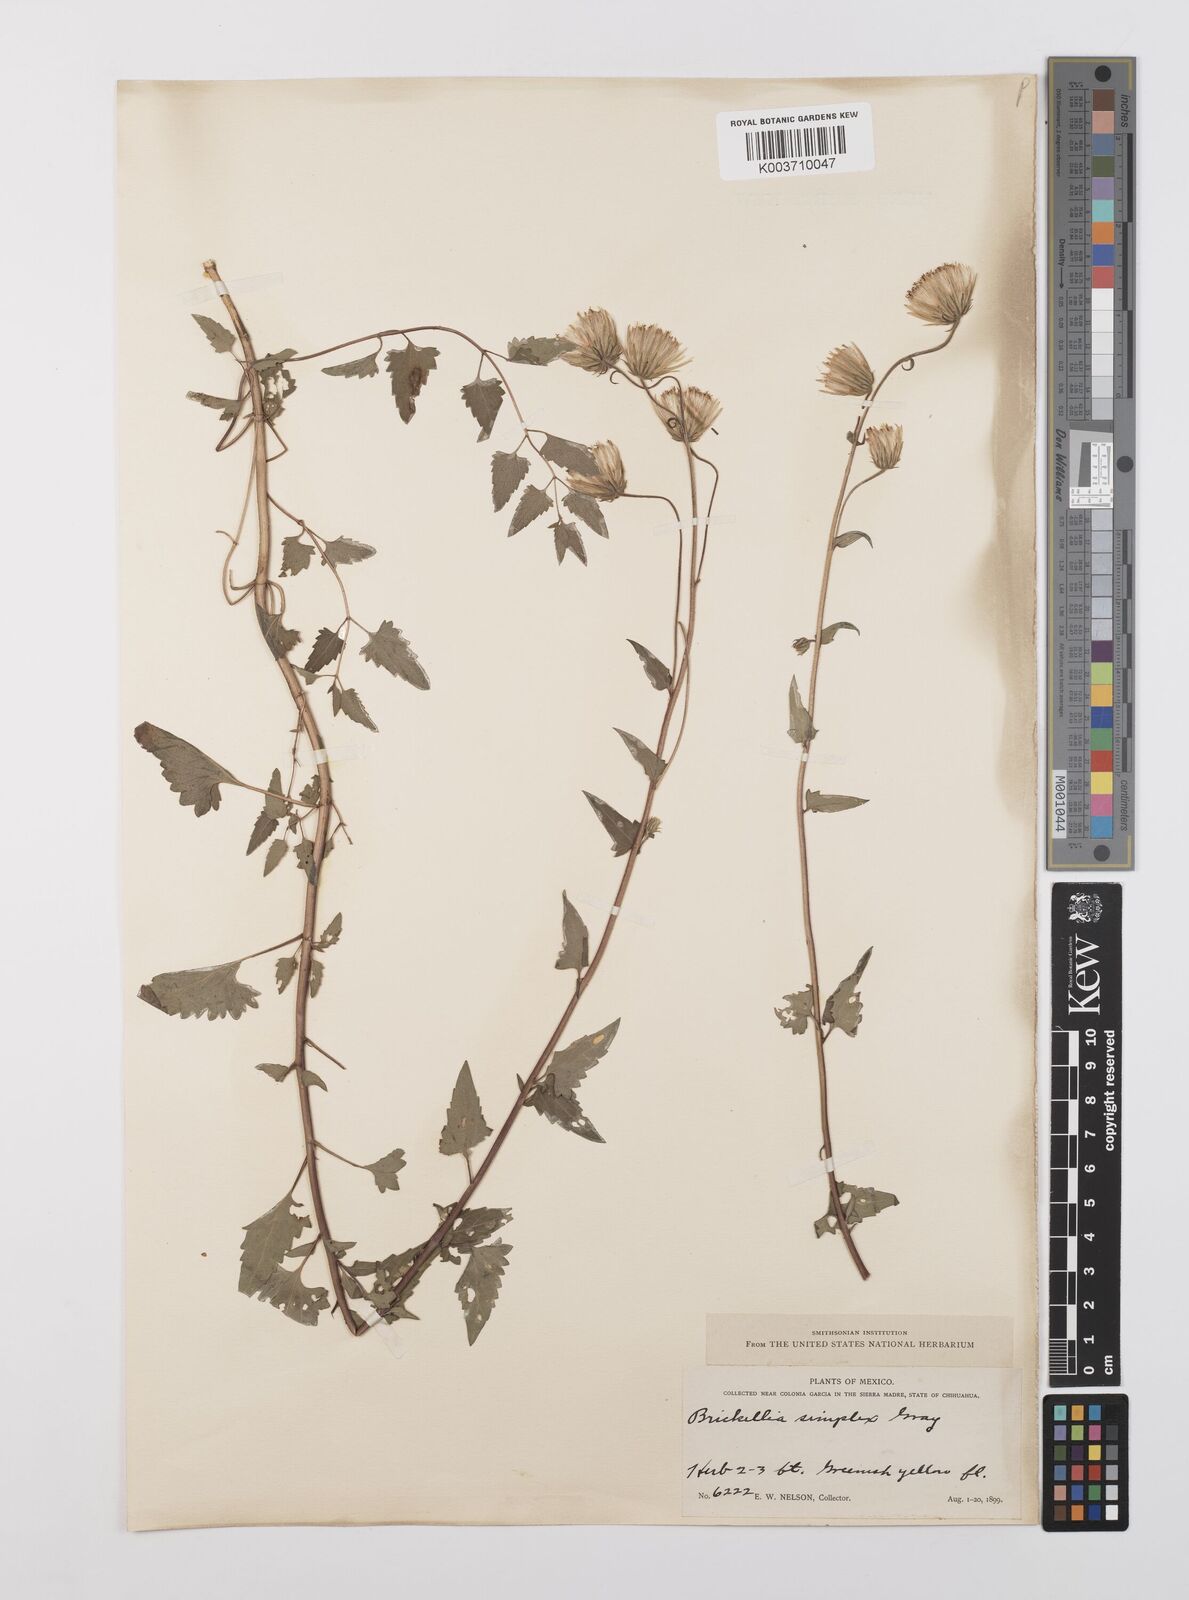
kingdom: Plantae
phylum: Tracheophyta
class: Magnoliopsida
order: Asterales
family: Asteraceae
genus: Brickellia
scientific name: Brickellia simplex
